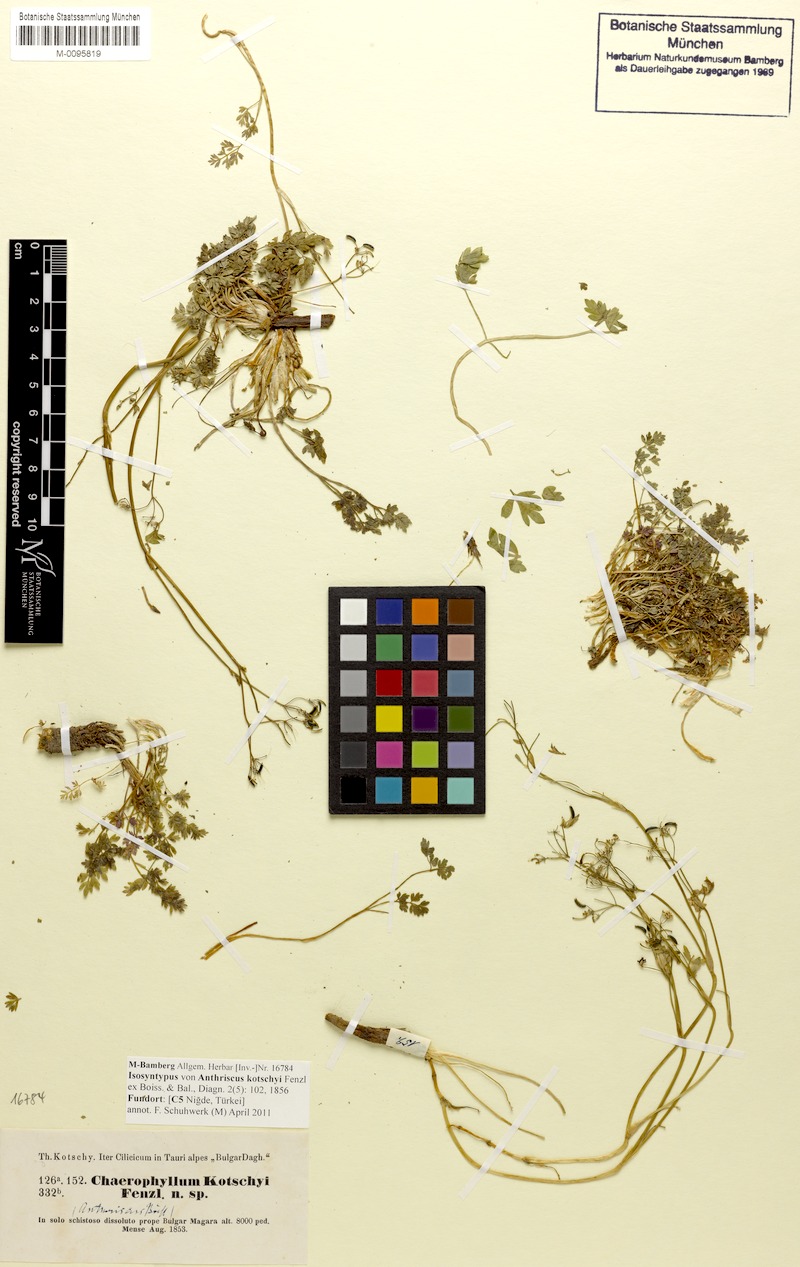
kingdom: Plantae
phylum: Tracheophyta
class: Magnoliopsida
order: Apiales
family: Apiaceae
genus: Anthriscus
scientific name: Anthriscus kotschyi
